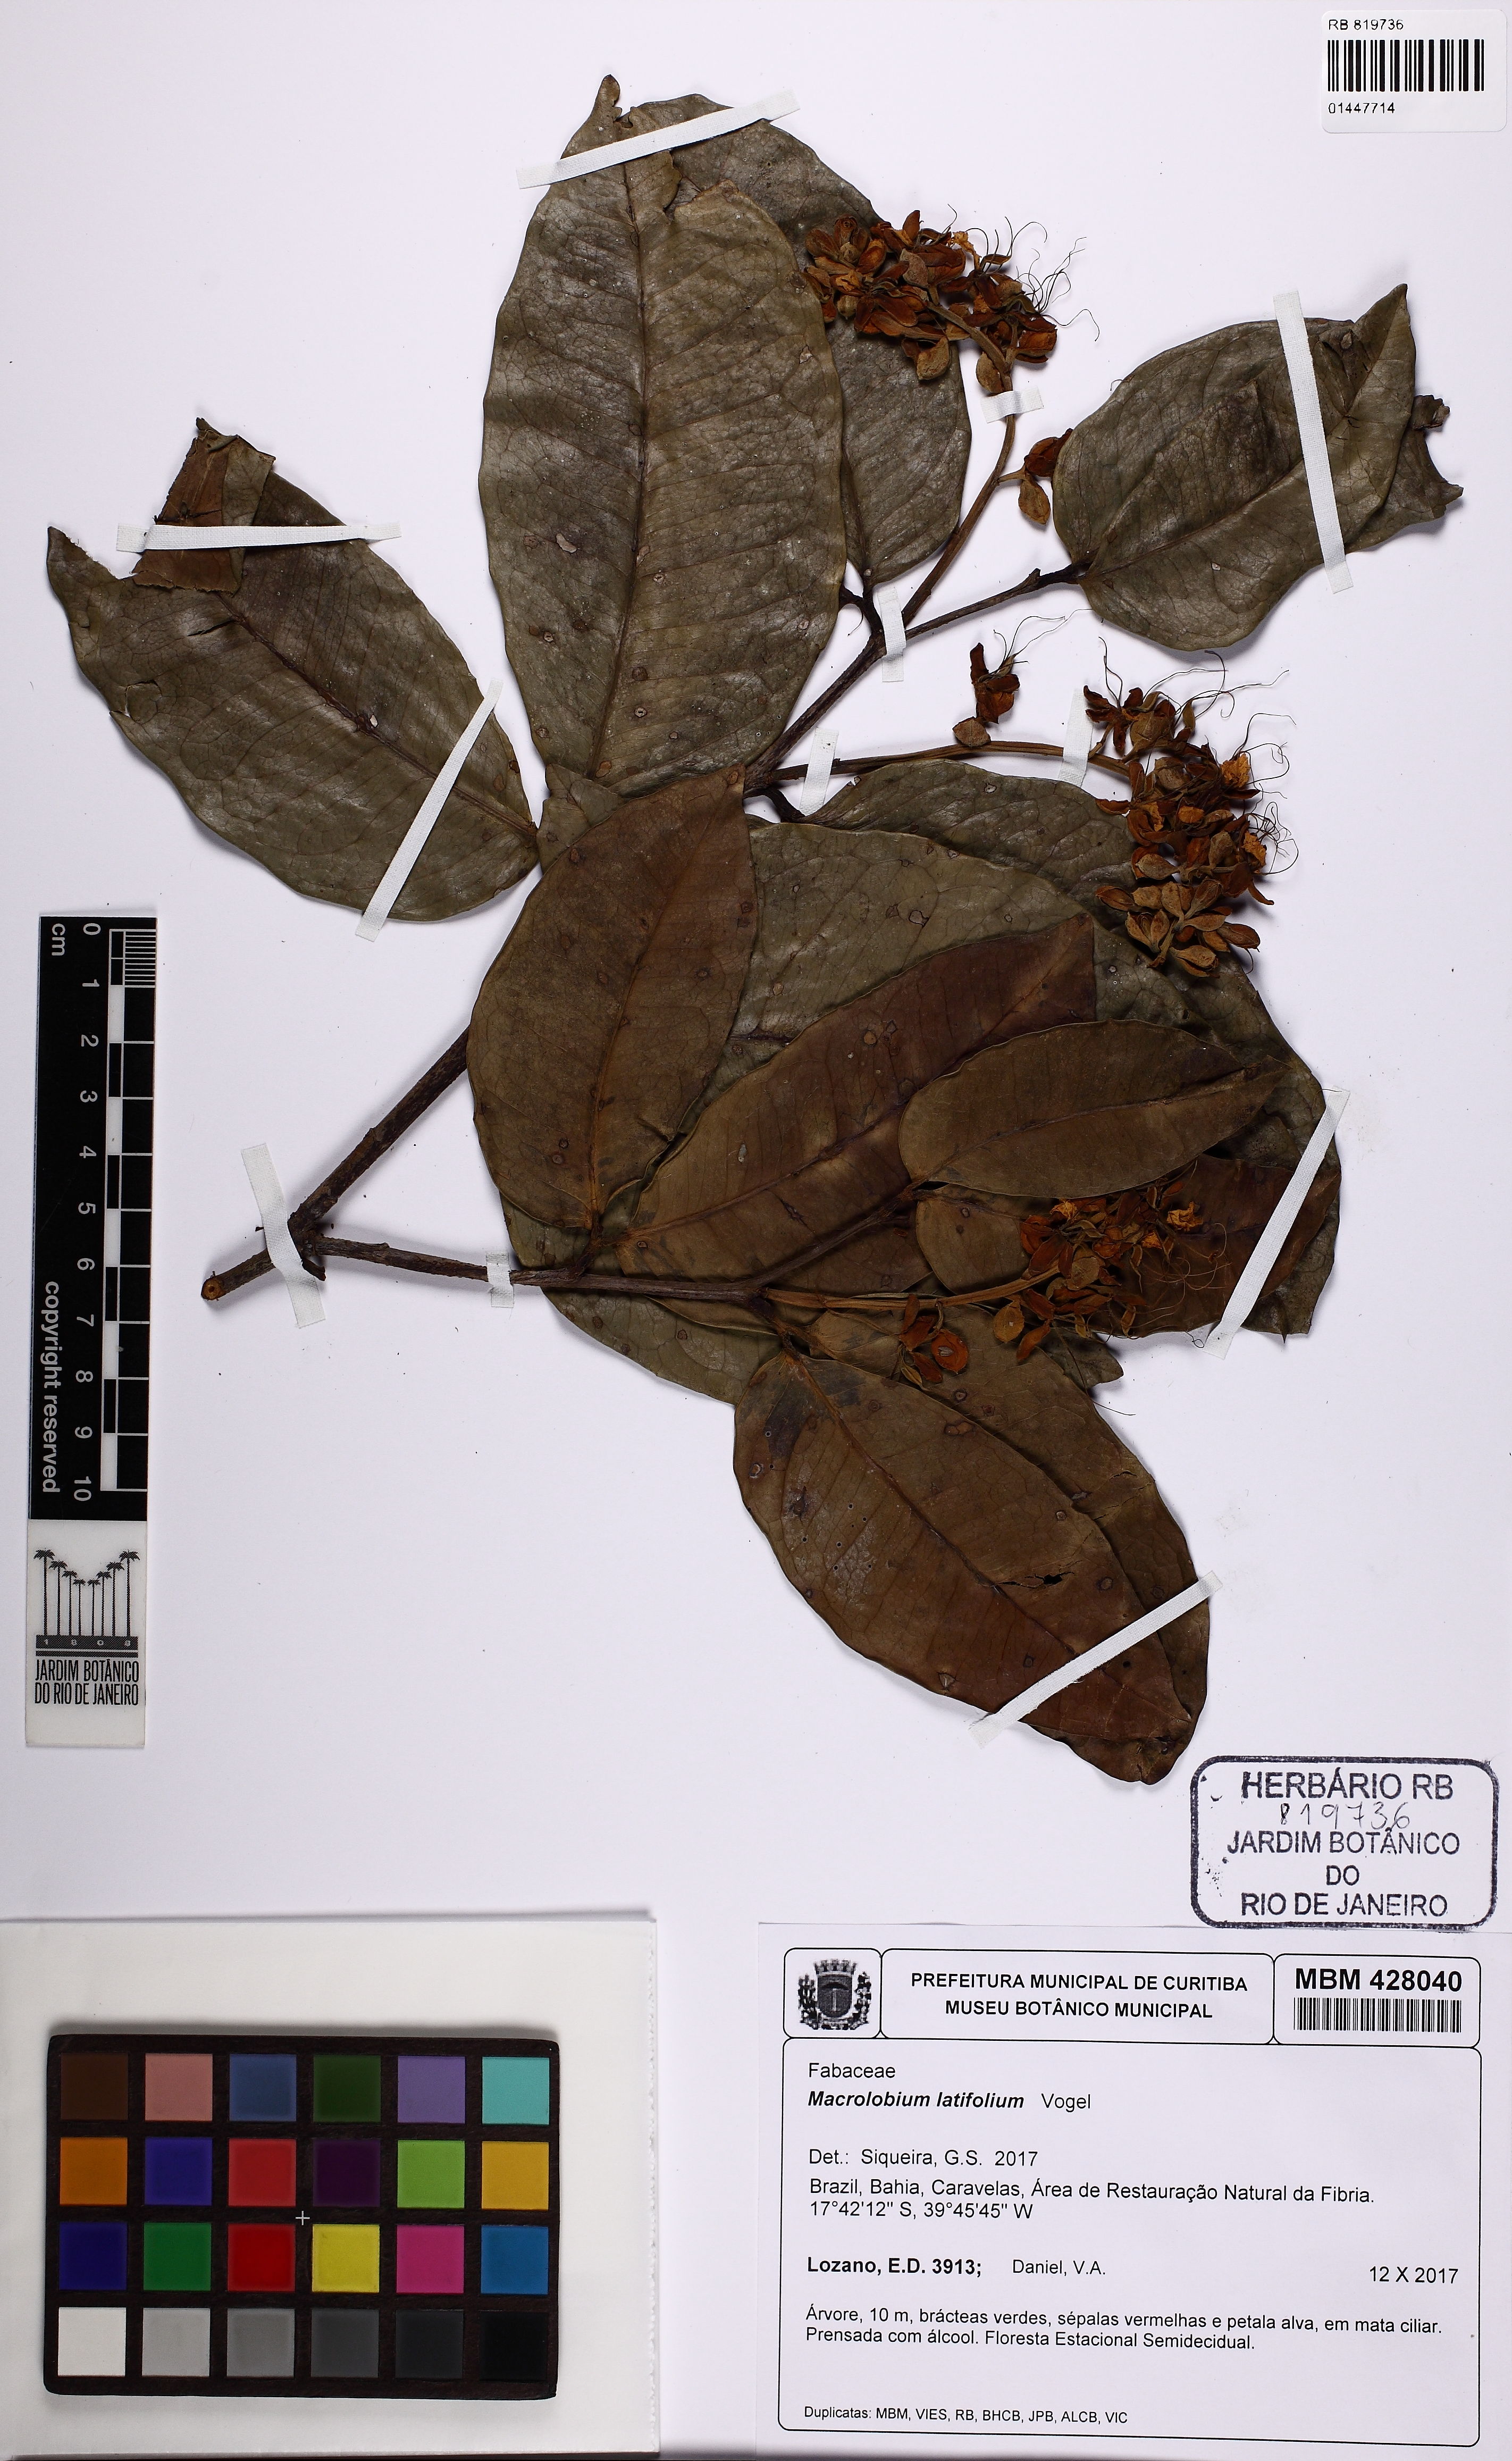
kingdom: Plantae
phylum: Tracheophyta
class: Magnoliopsida
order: Fabales
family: Fabaceae
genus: Macrolobium
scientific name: Macrolobium latifolium
